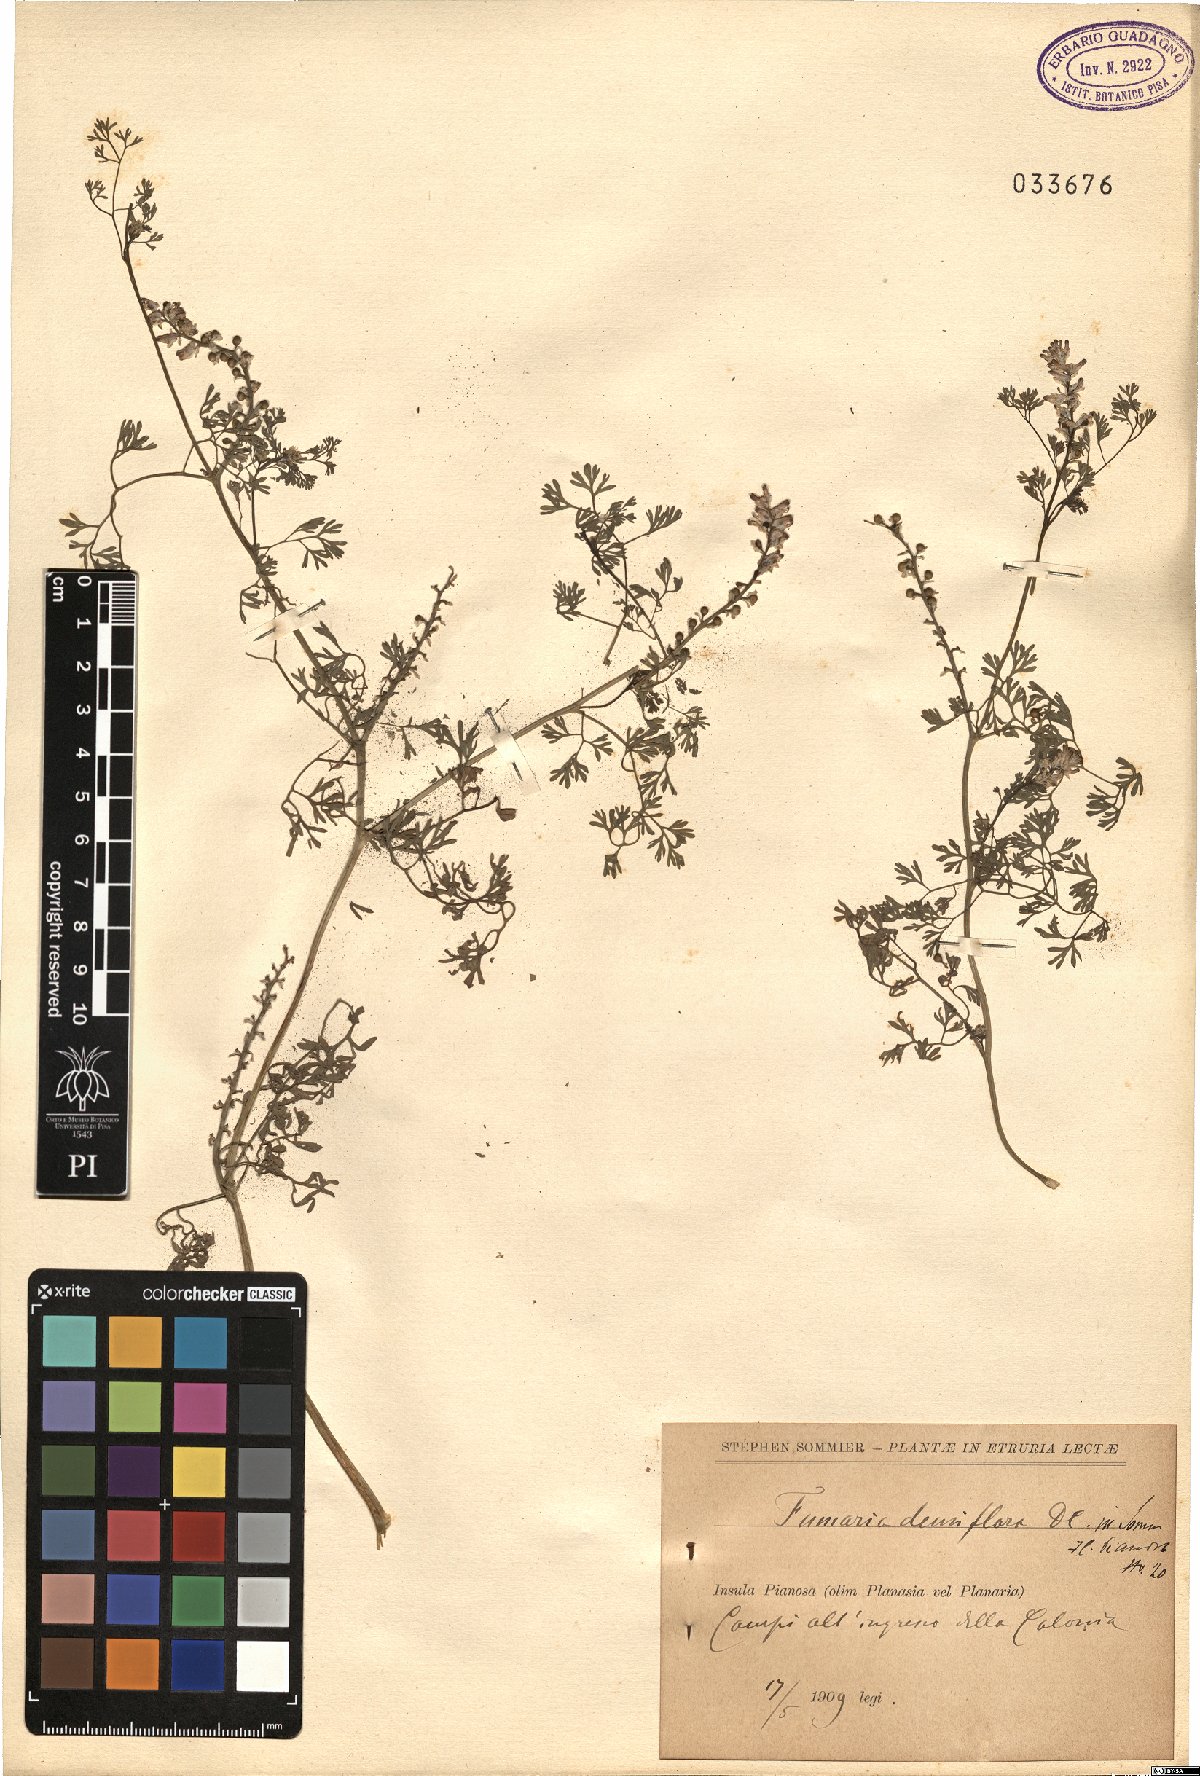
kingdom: Plantae
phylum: Tracheophyta
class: Magnoliopsida
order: Ranunculales
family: Papaveraceae
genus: Fumaria
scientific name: Fumaria densiflora
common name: Dense-flowered fumitory
